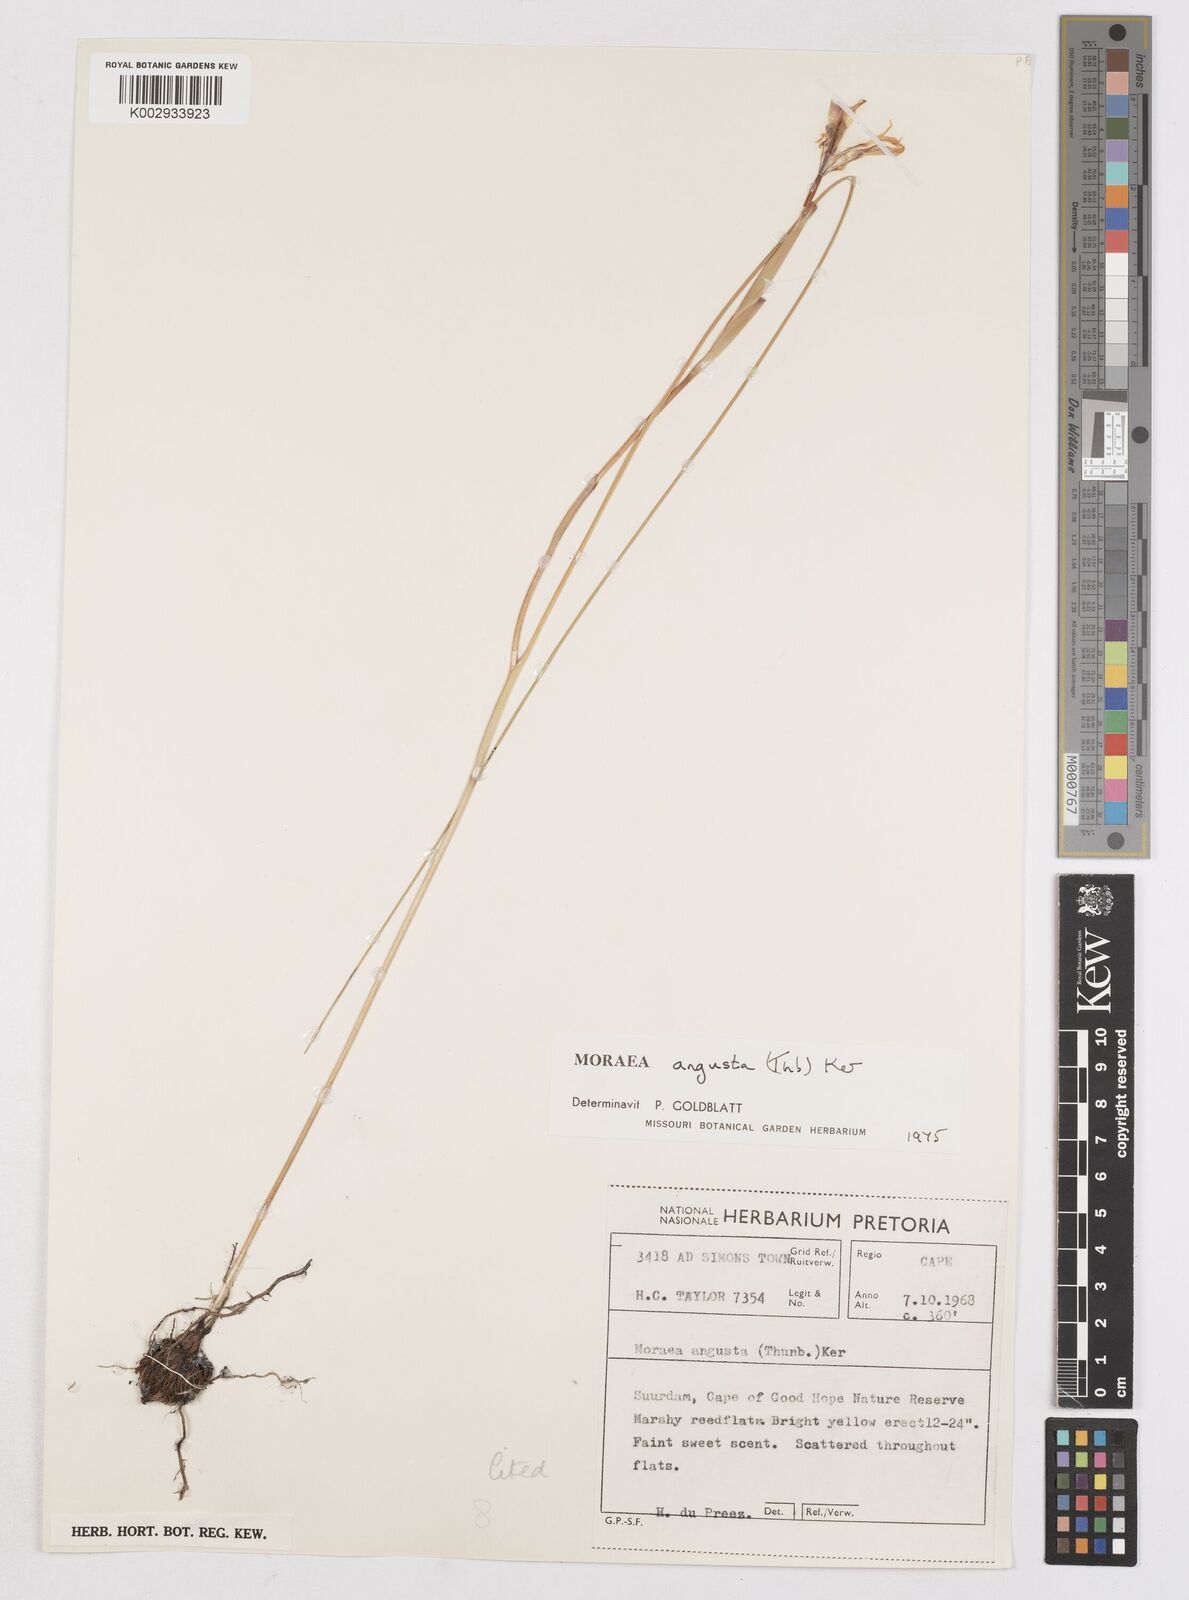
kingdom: Plantae
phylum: Tracheophyta
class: Liliopsida
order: Asparagales
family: Iridaceae
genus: Moraea
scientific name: Moraea angusta
